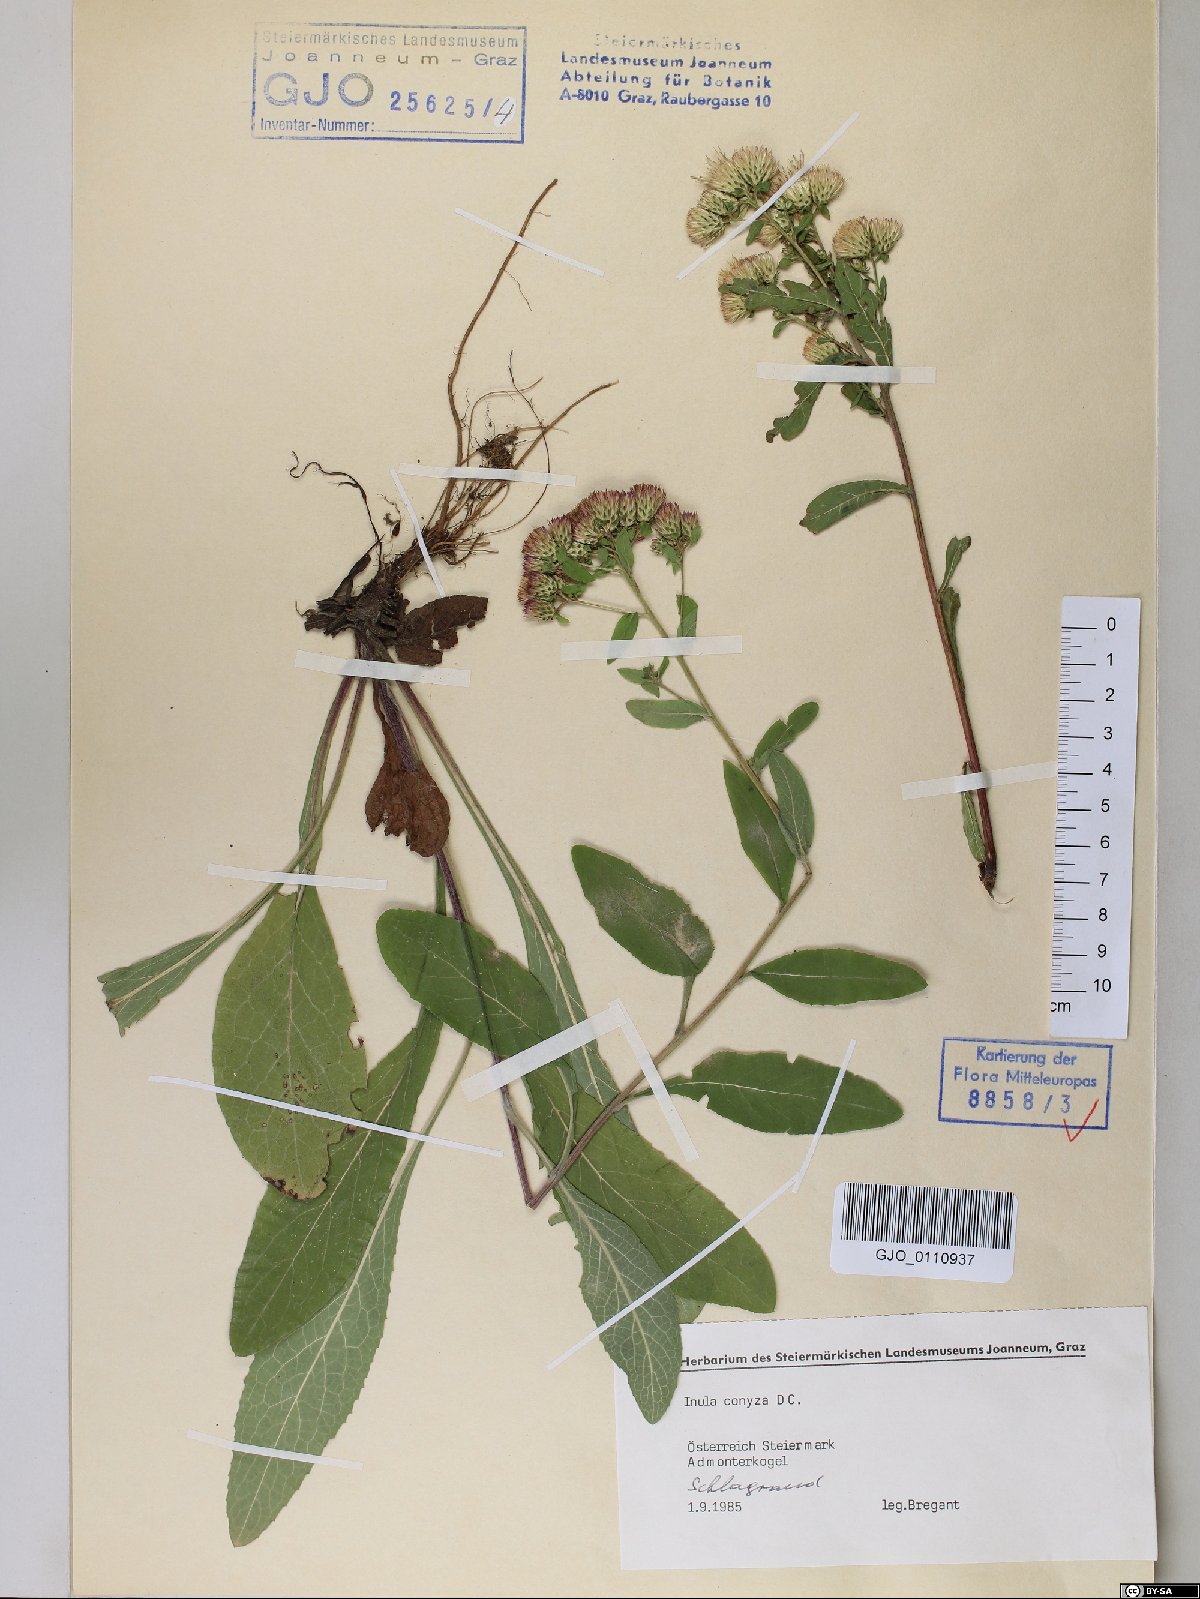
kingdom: Plantae
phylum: Tracheophyta
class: Magnoliopsida
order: Asterales
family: Asteraceae
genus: Pentanema
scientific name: Pentanema squarrosum
